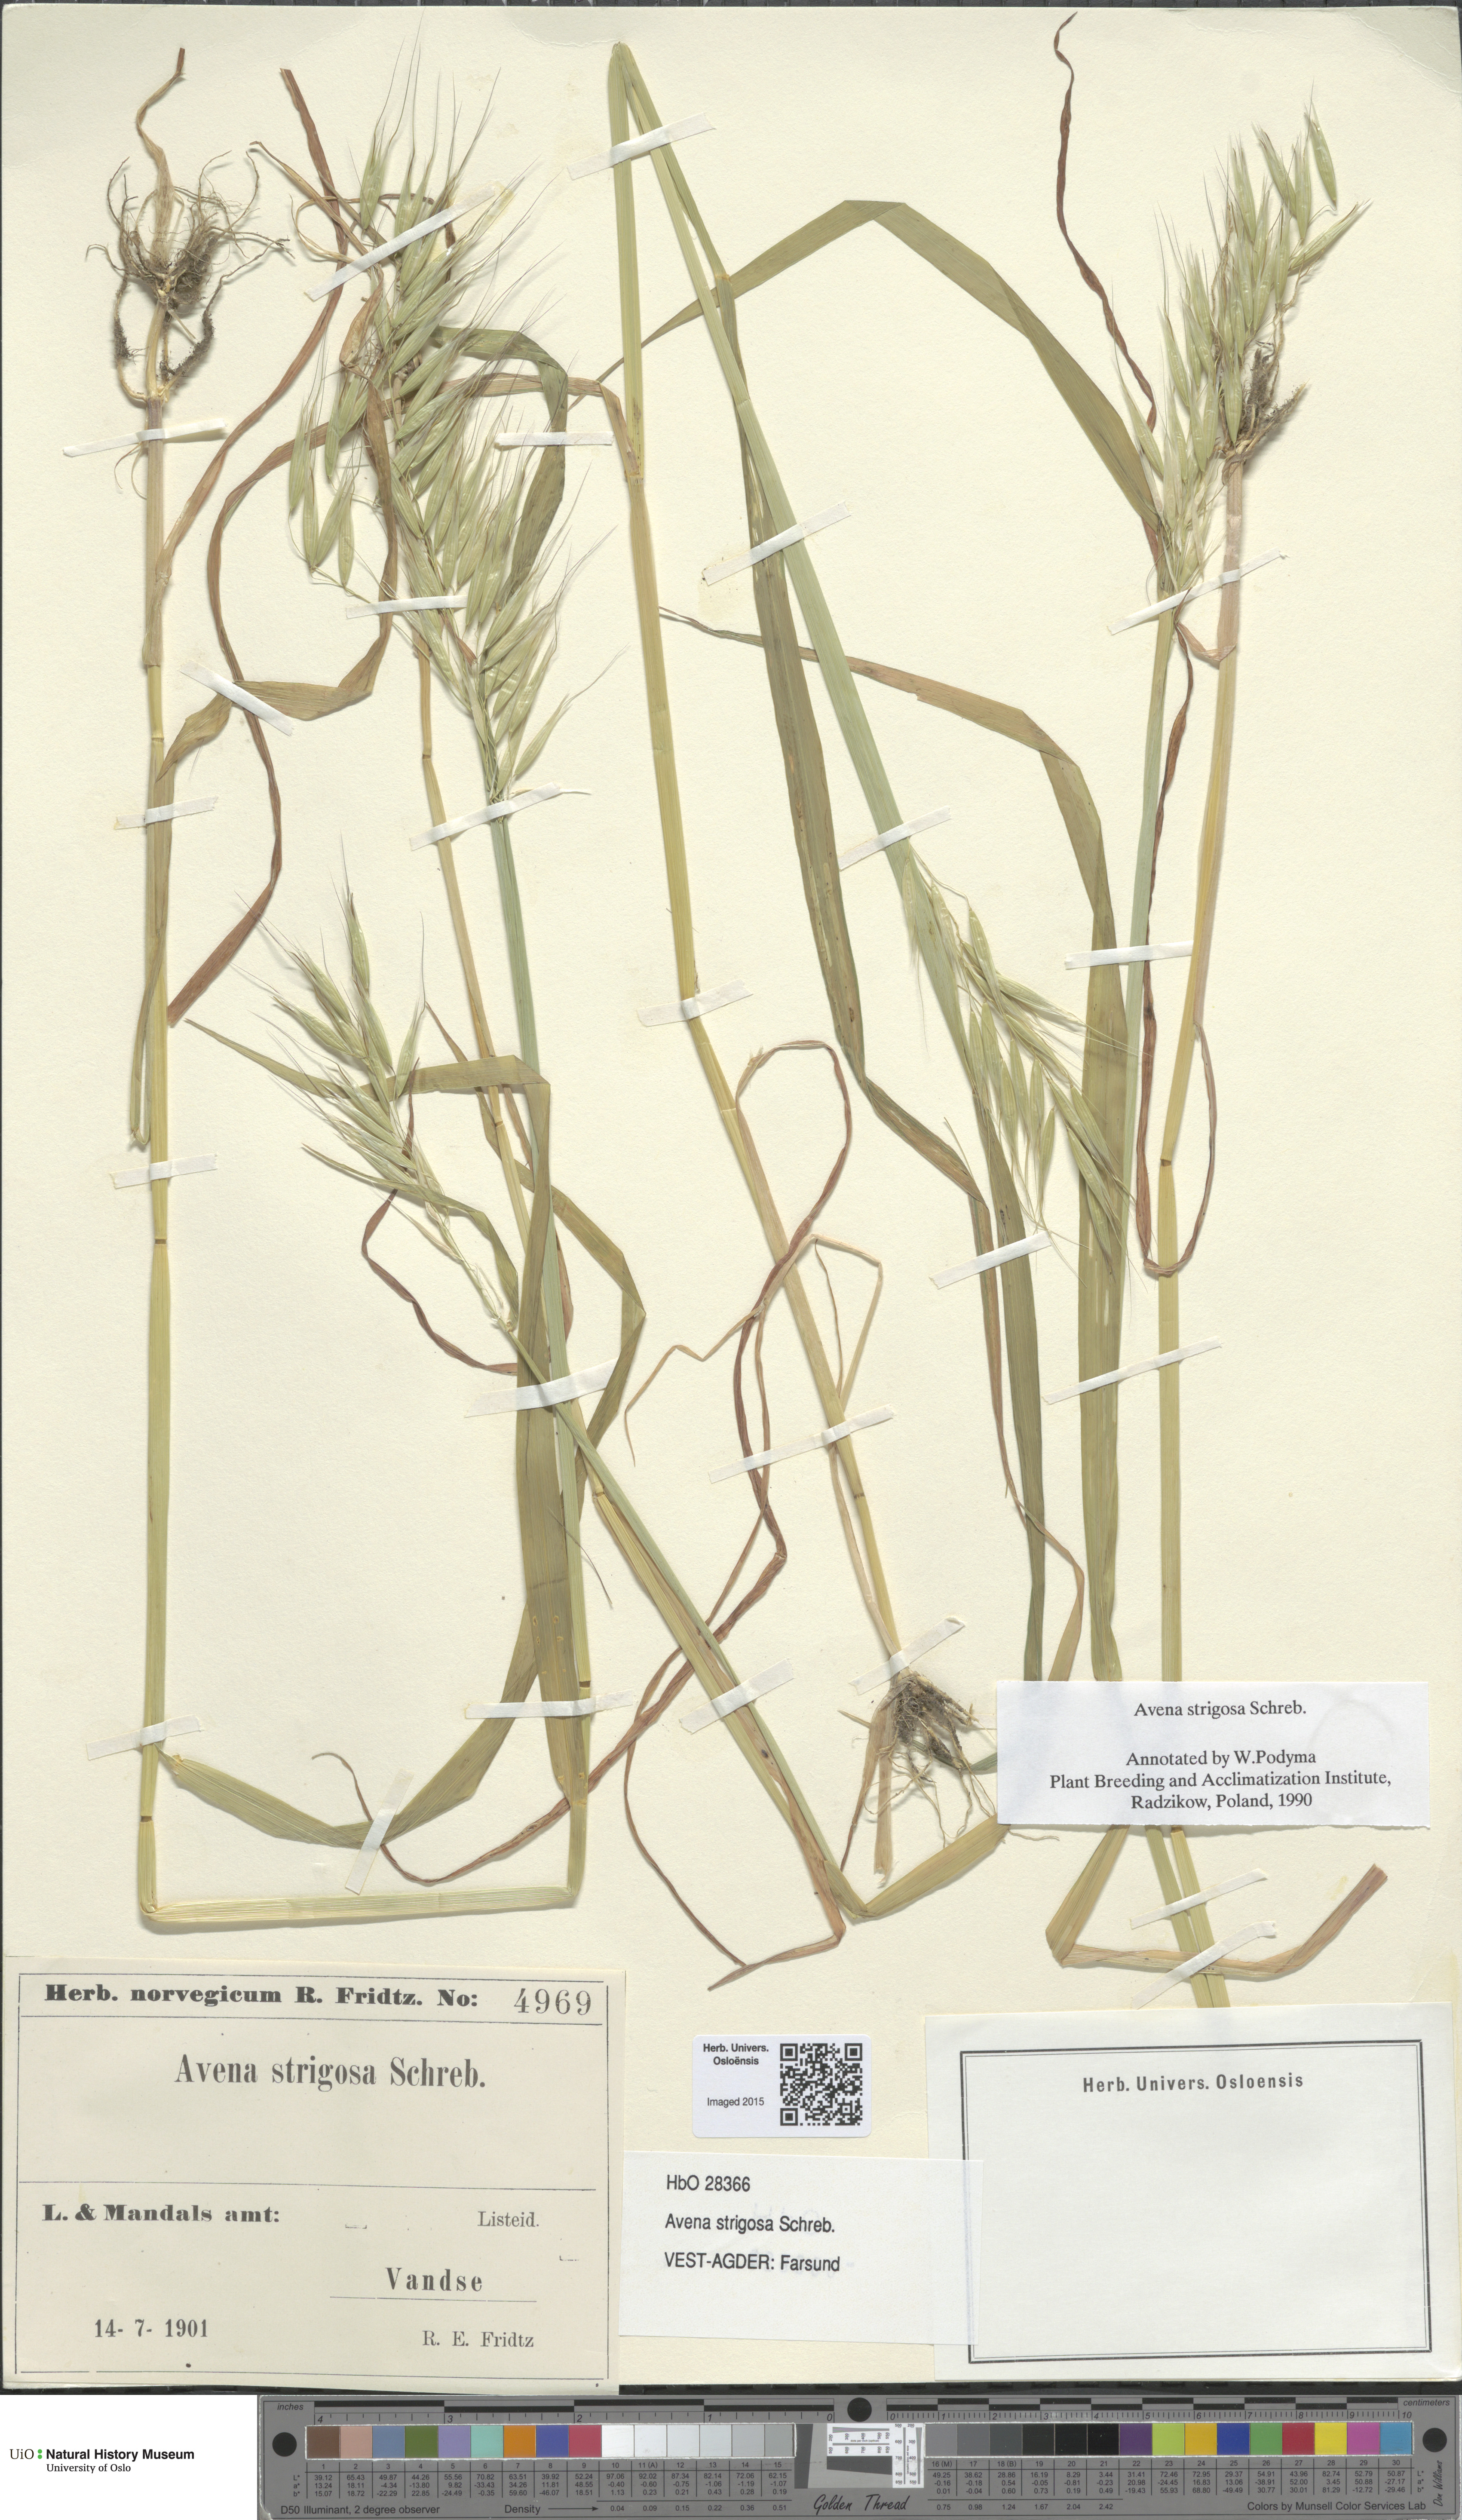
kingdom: Plantae
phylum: Tracheophyta
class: Liliopsida
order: Poales
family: Poaceae
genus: Avena
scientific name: Avena strigosa
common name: Bristle oat
